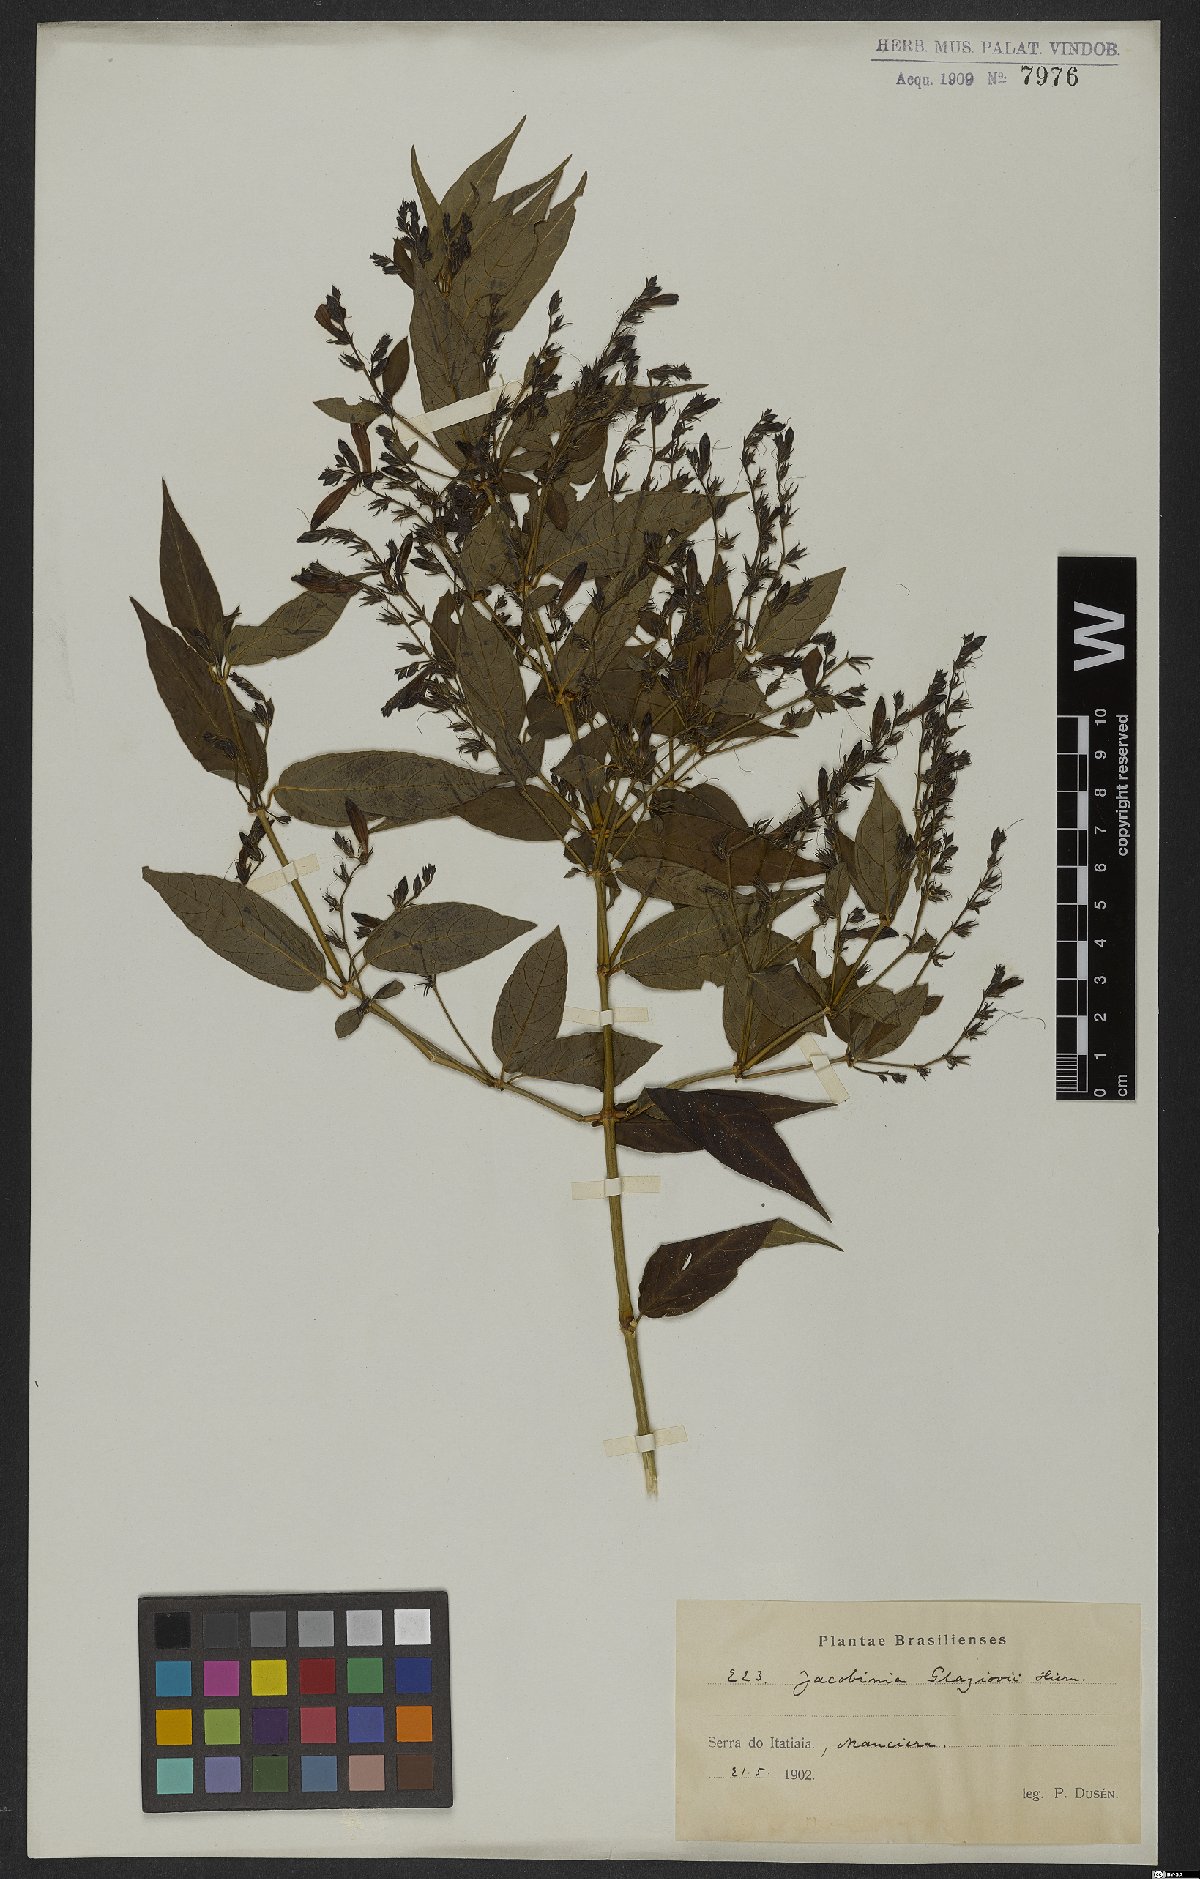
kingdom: Plantae
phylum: Tracheophyta
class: Magnoliopsida
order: Lamiales
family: Acanthaceae
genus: Justicia
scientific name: Justicia rubriflora
